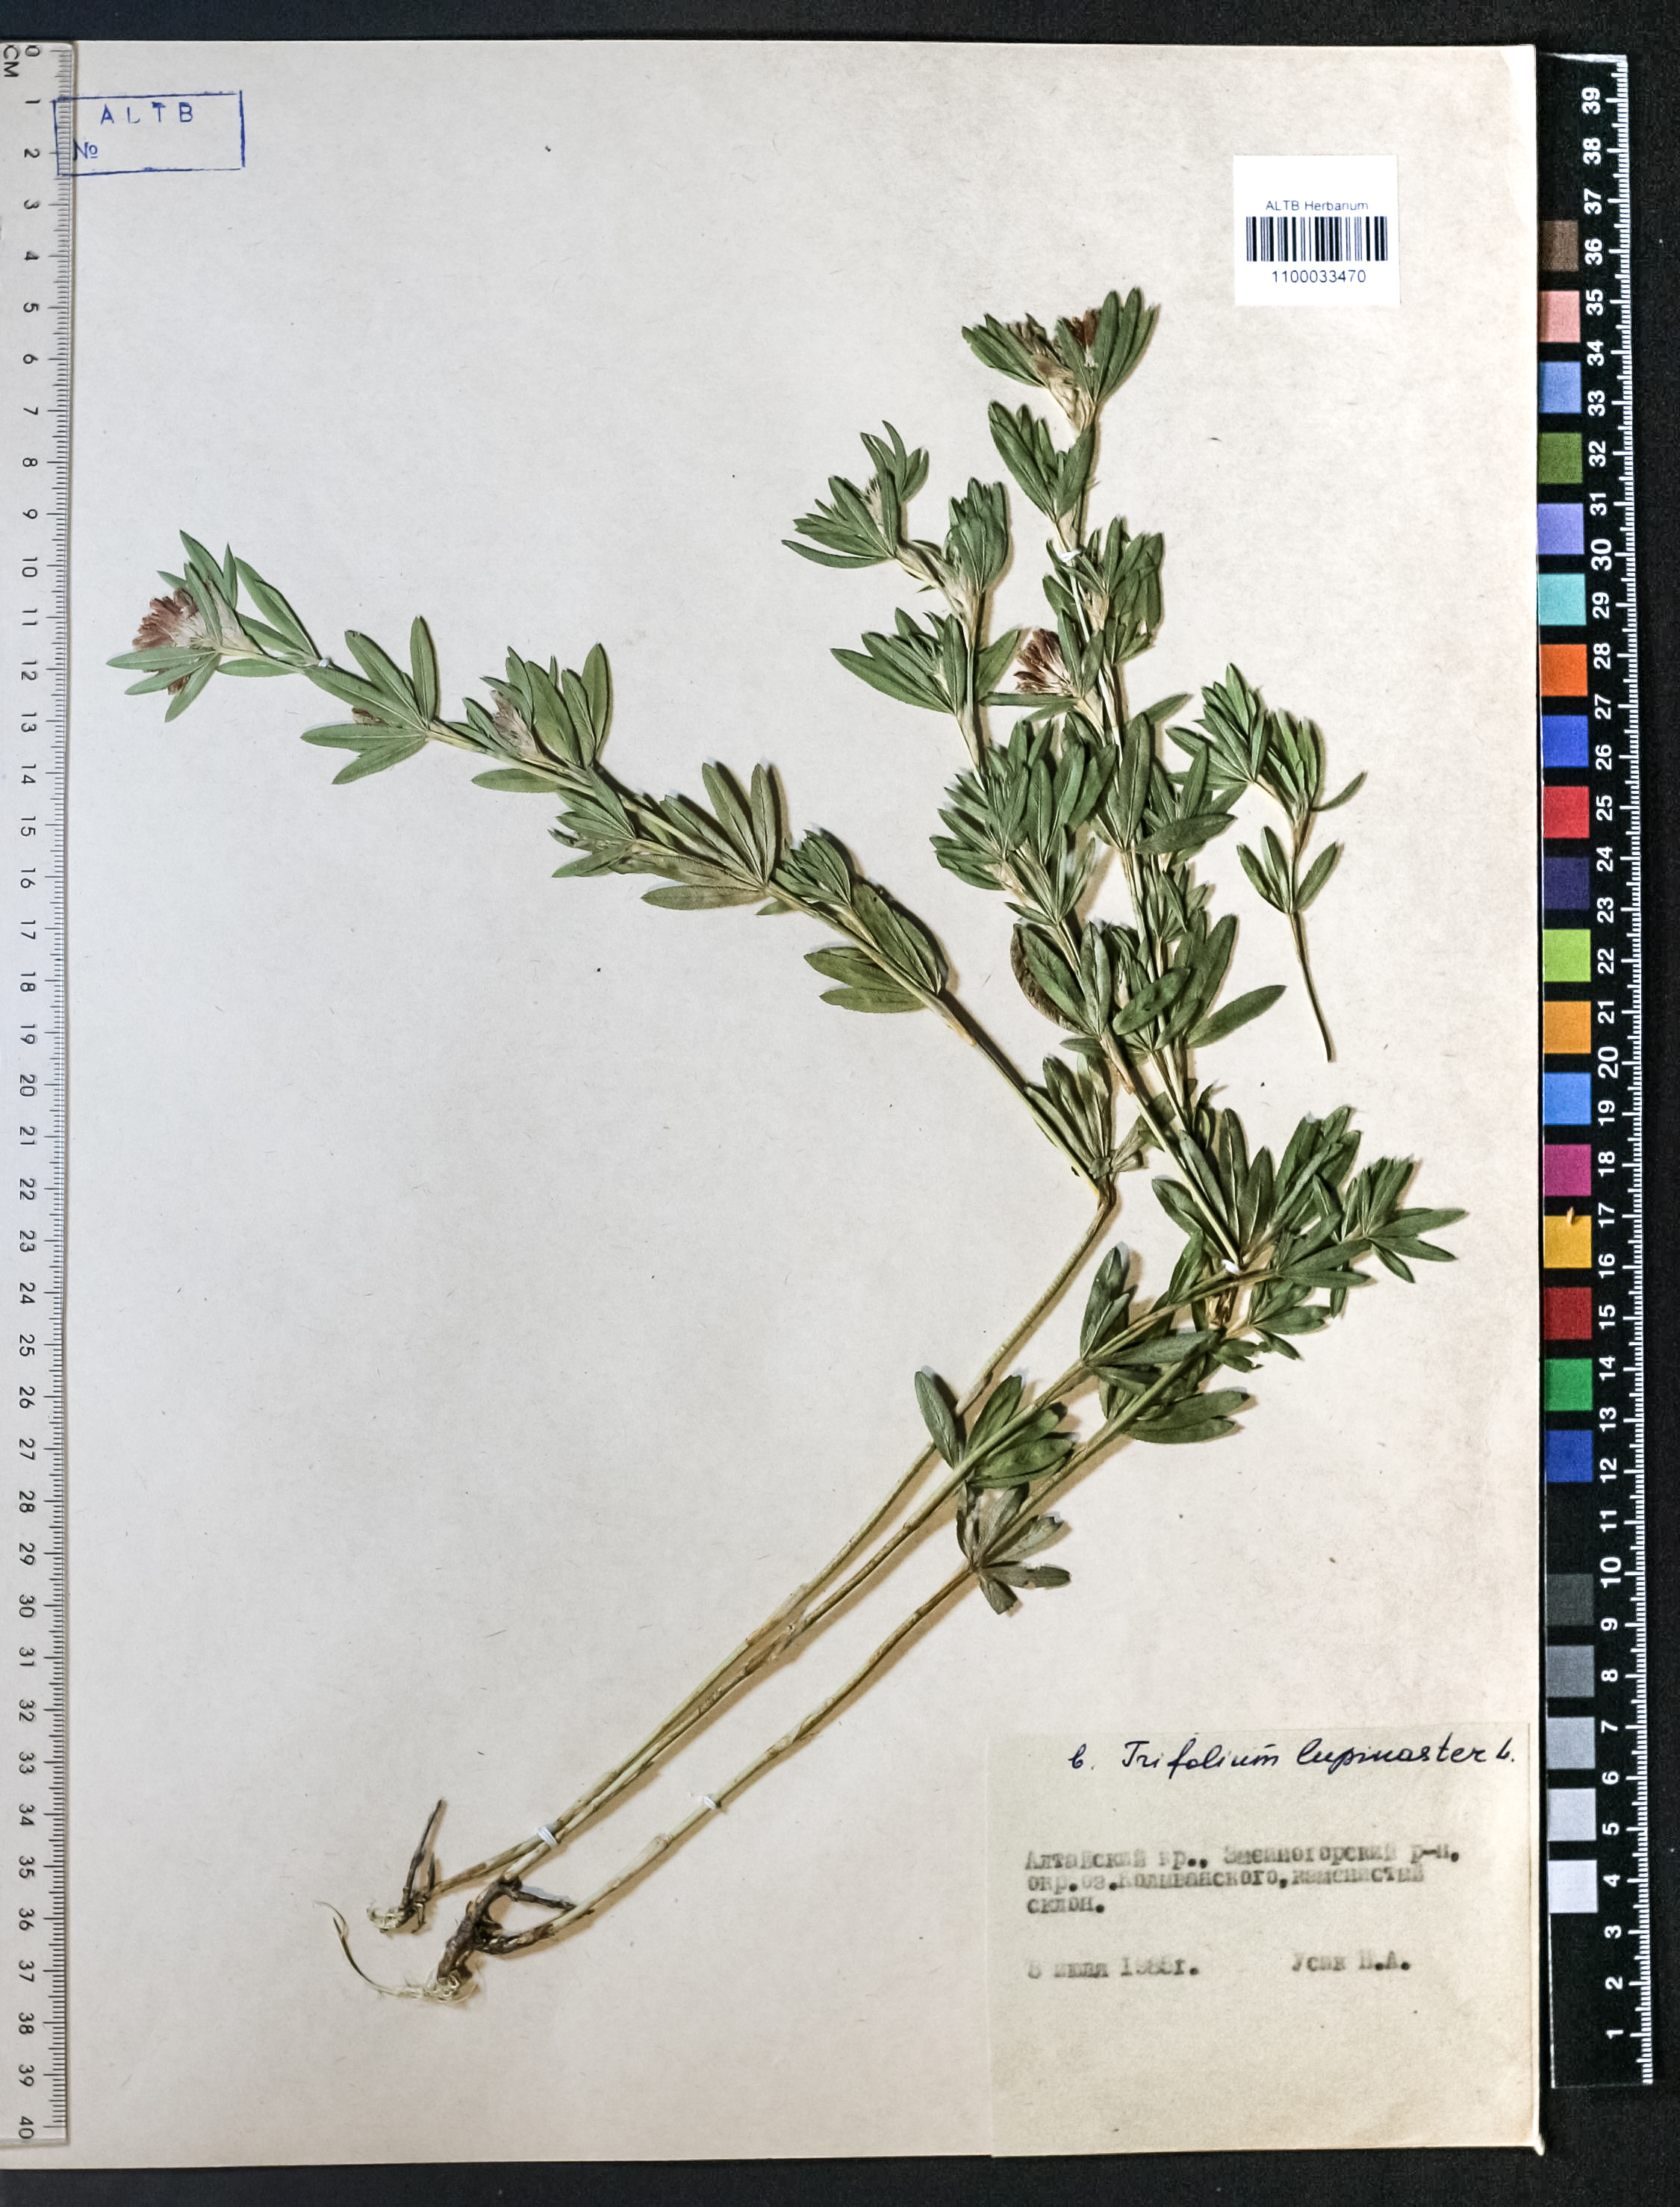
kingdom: Plantae
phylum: Tracheophyta
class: Magnoliopsida
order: Fabales
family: Fabaceae
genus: Trifolium
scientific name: Trifolium lupinaster
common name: Lupine clover
